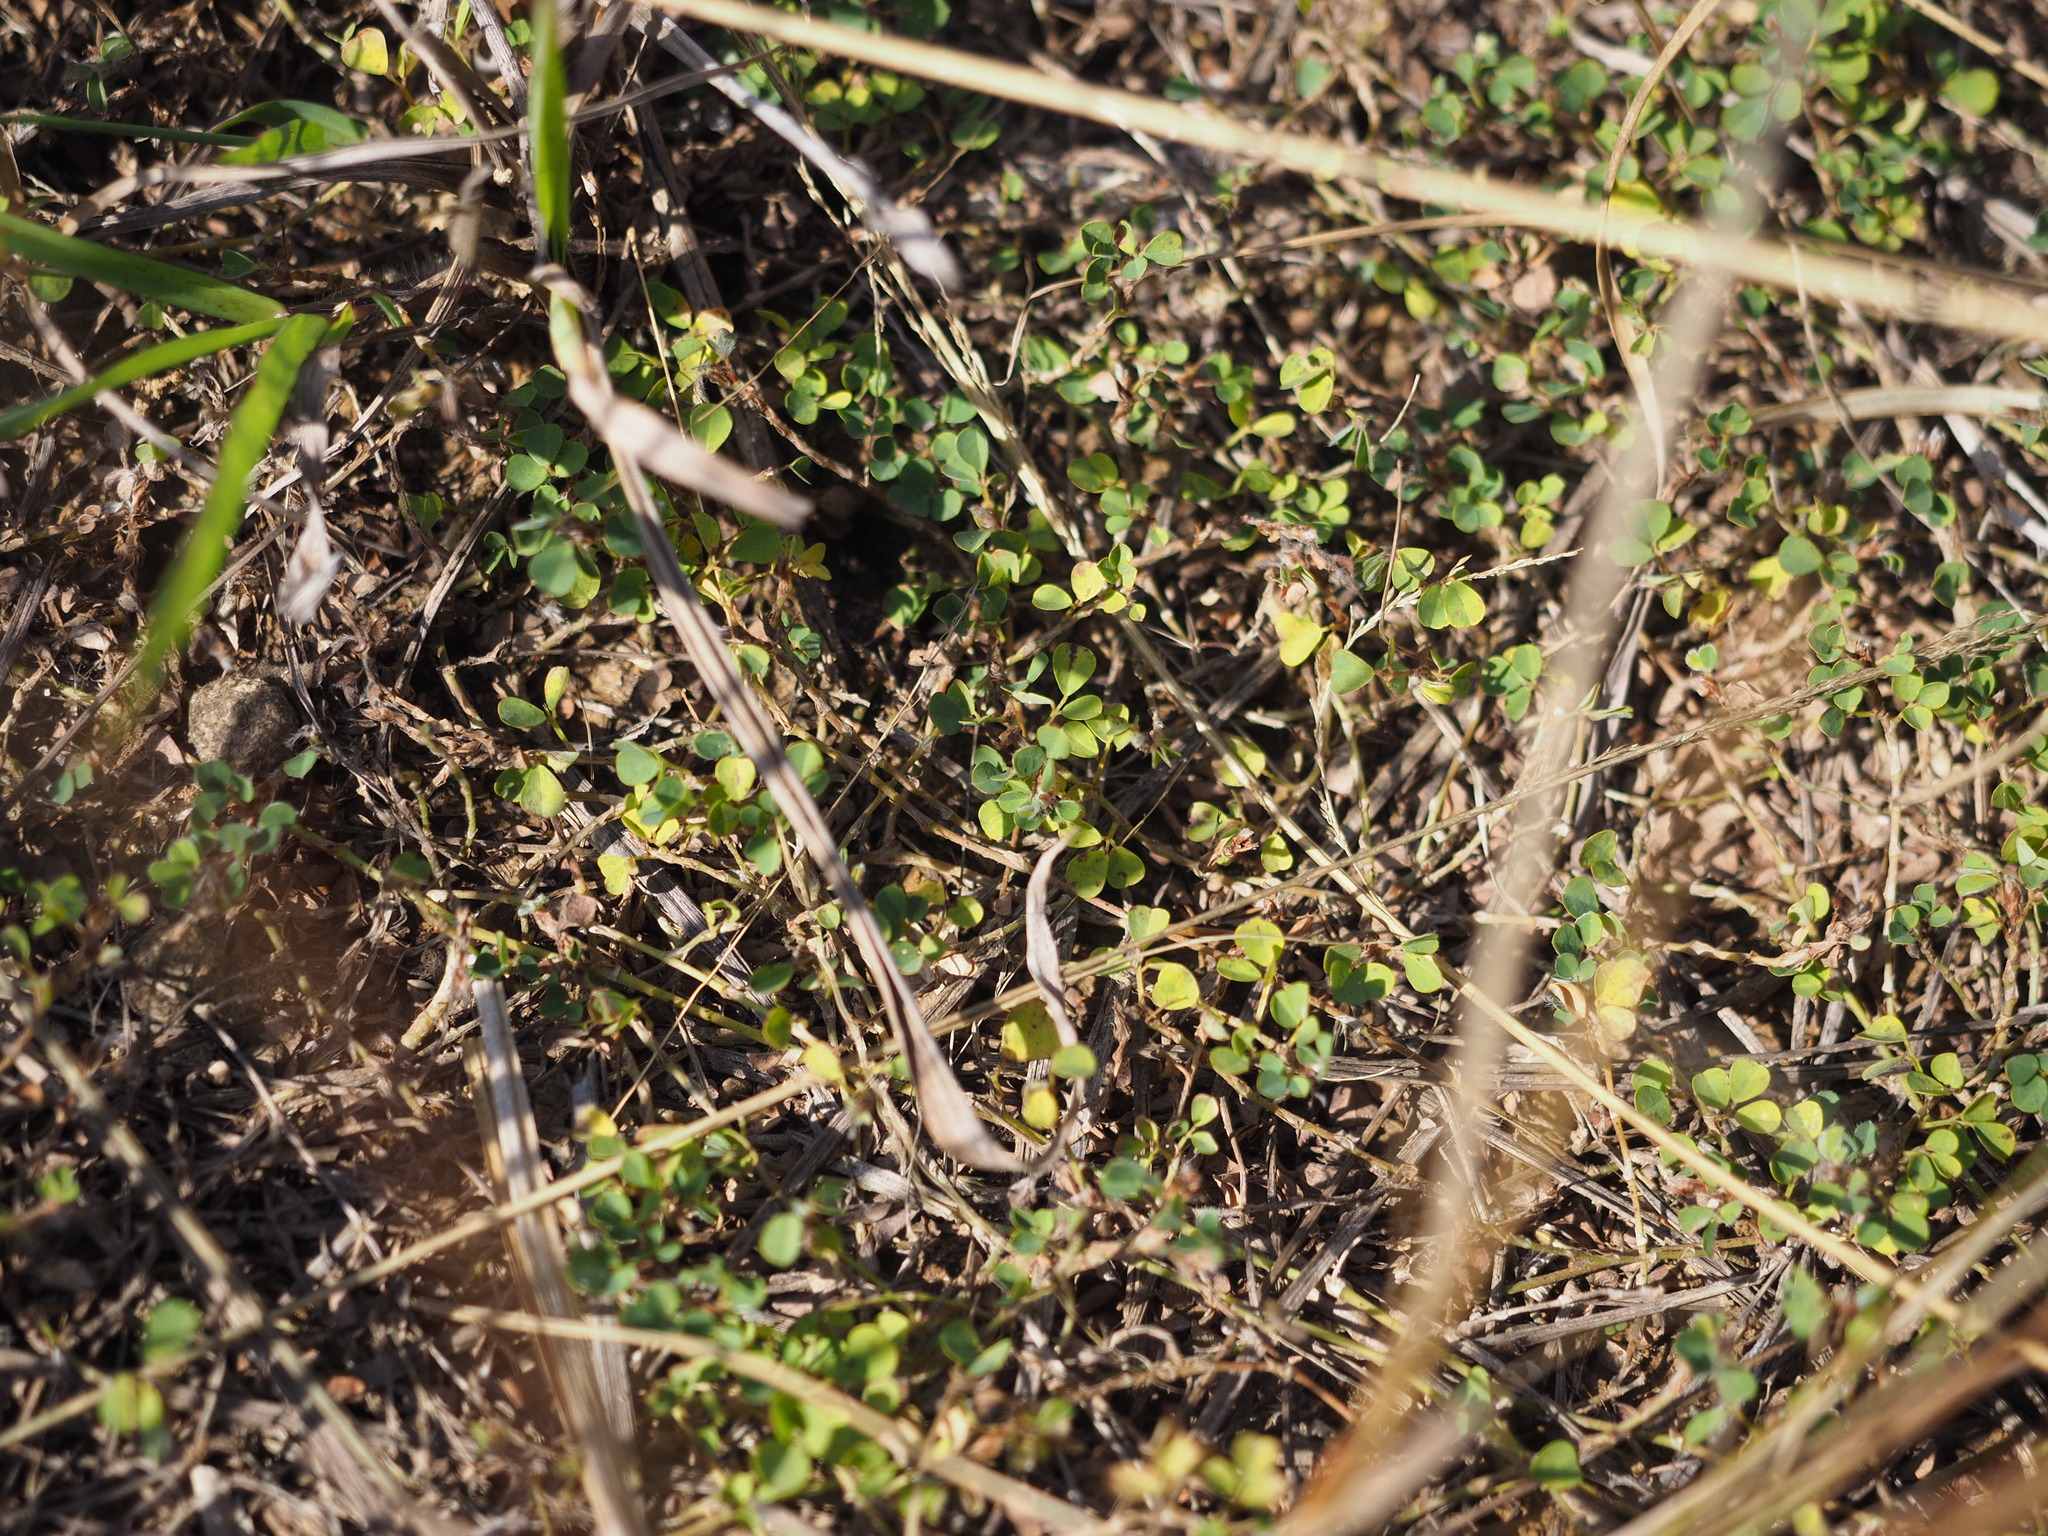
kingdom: Plantae
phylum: Tracheophyta
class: Magnoliopsida
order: Fabales
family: Fabaceae
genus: Grona
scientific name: Grona triflora
